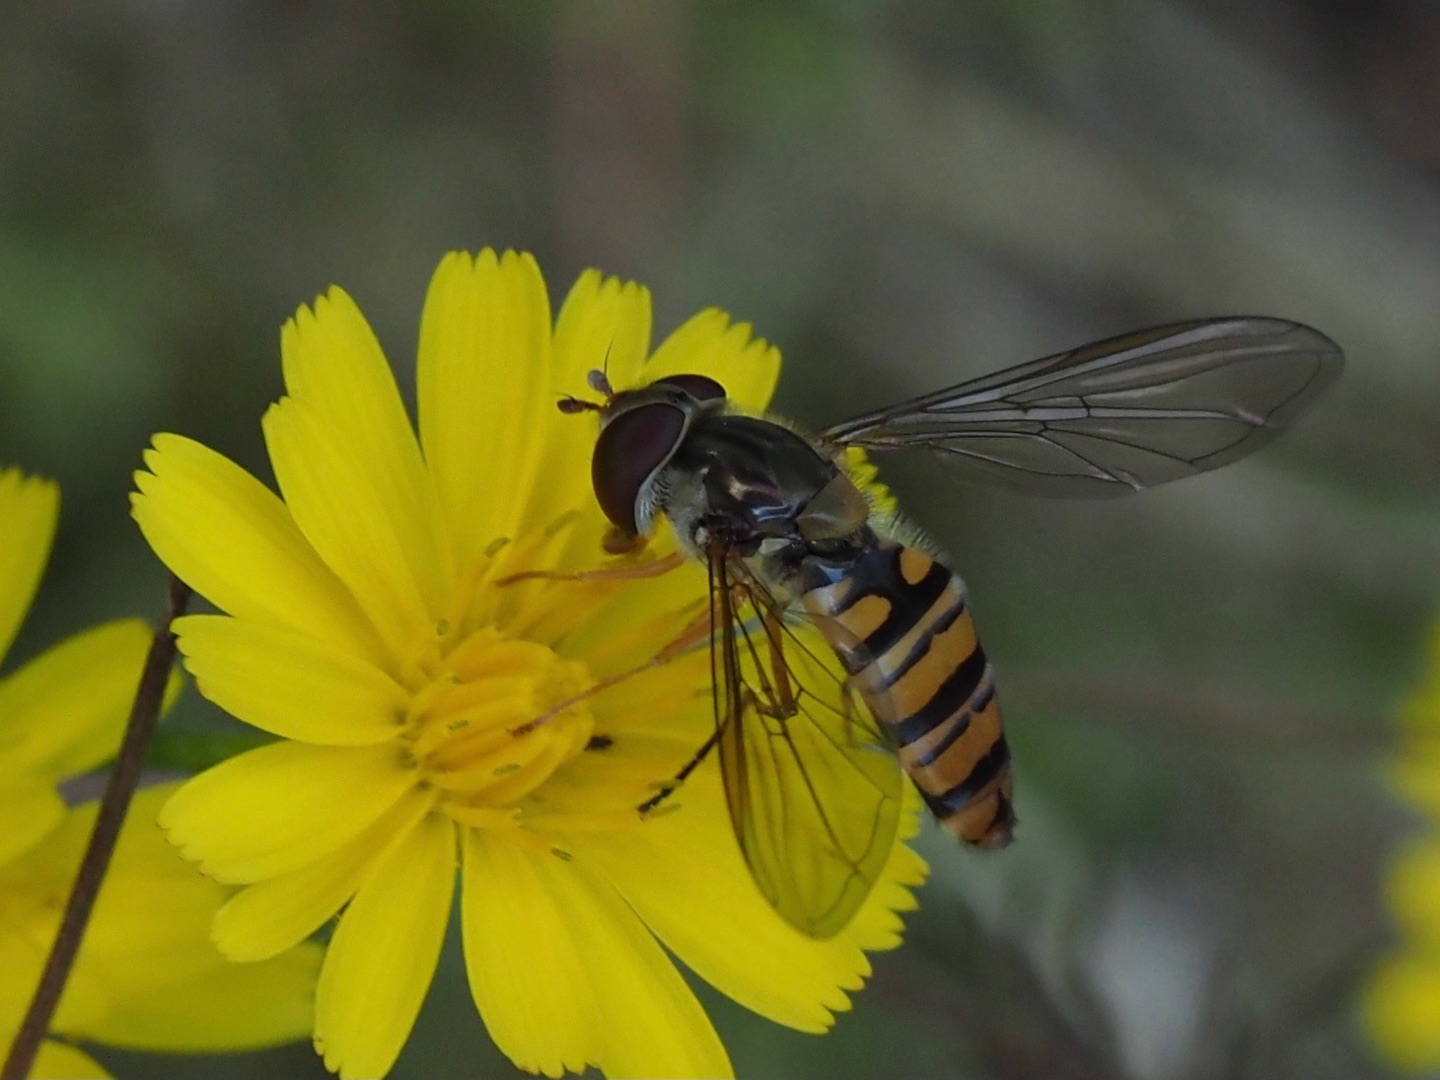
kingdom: Animalia
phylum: Arthropoda
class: Insecta
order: Diptera
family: Syrphidae
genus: Episyrphus
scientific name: Episyrphus balteatus
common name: Dobbeltbåndet svirreflue
